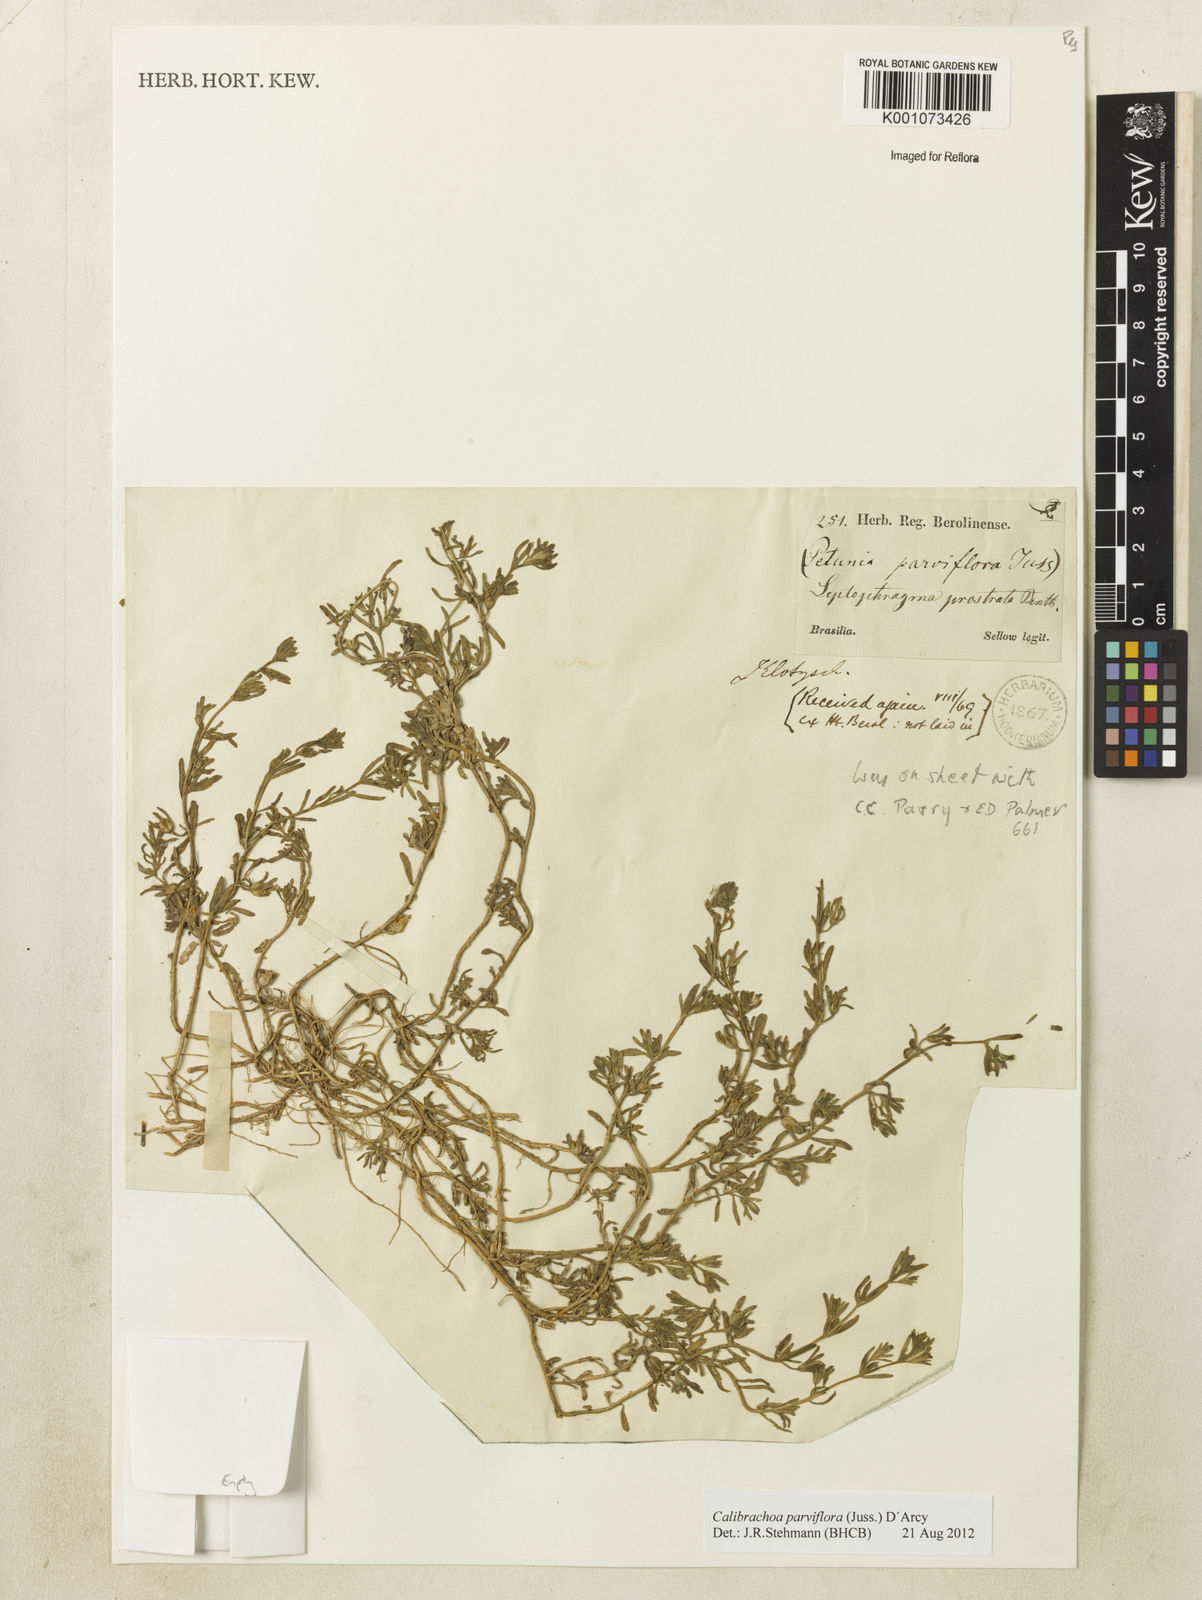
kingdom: Plantae
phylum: Tracheophyta
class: Magnoliopsida
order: Solanales
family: Solanaceae
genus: Calibrachoa
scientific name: Calibrachoa parviflora
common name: Seaside petunia
